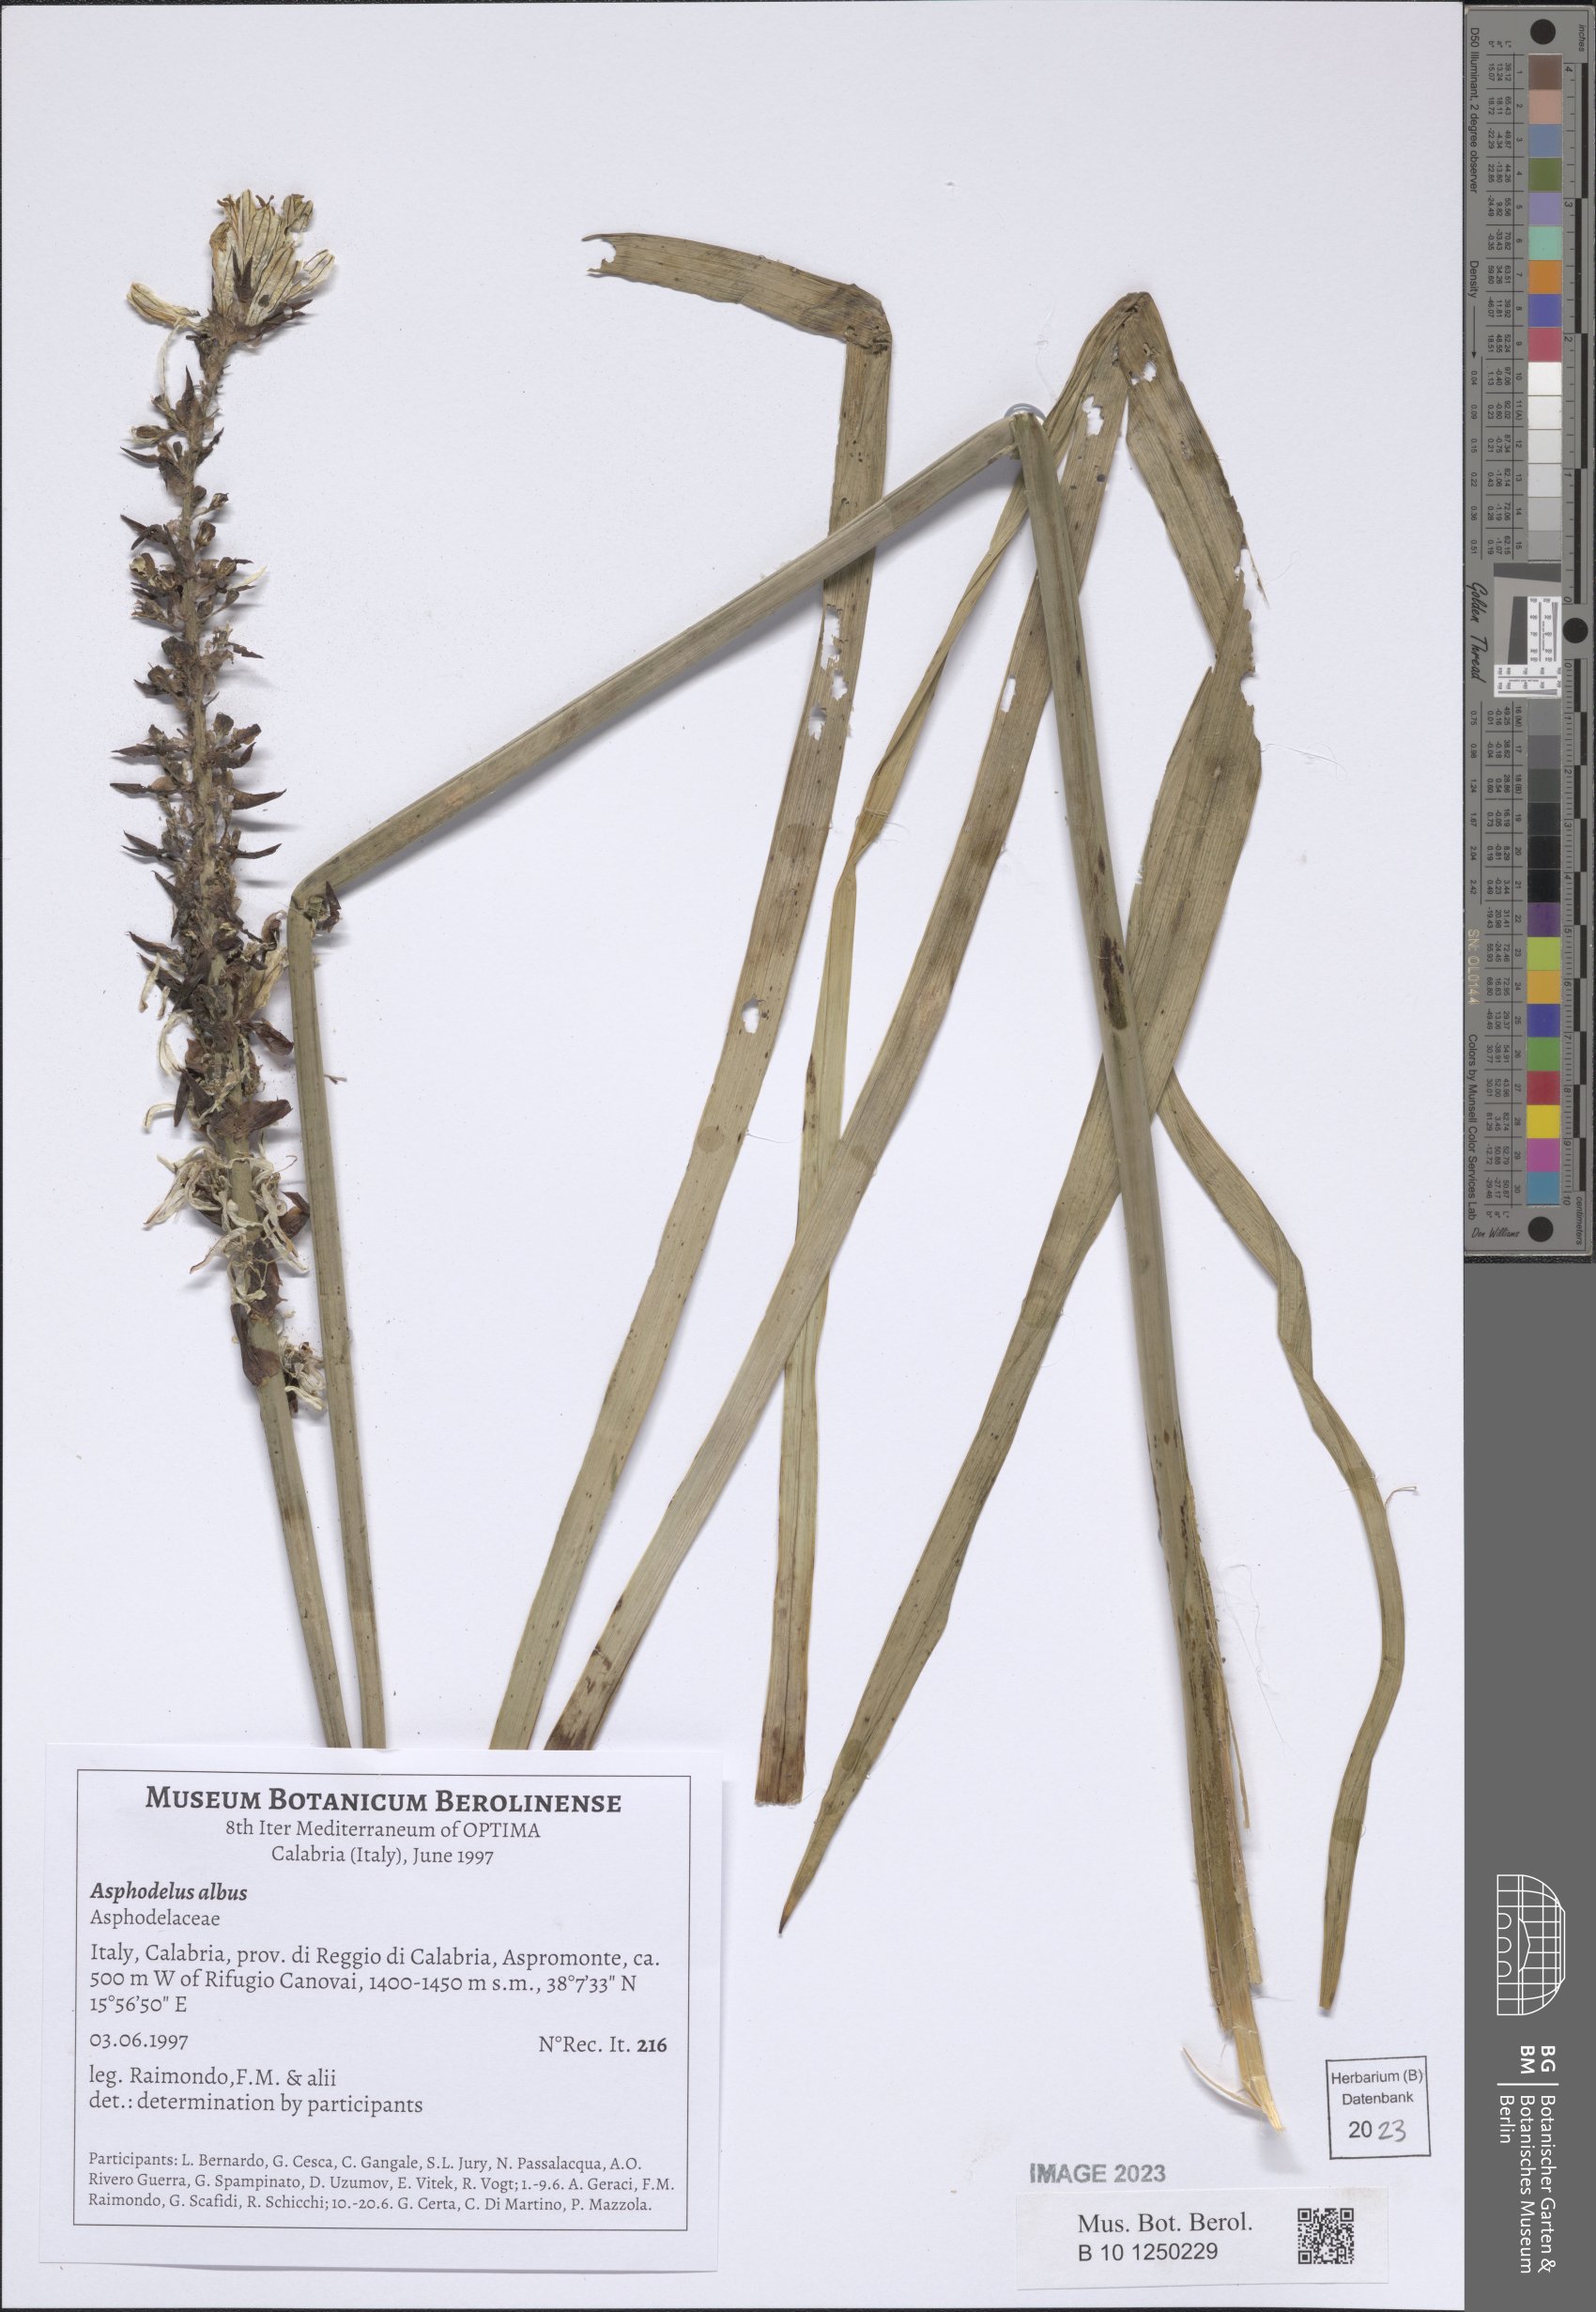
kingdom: Plantae
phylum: Tracheophyta
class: Liliopsida
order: Asparagales
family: Asphodelaceae
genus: Asphodelus
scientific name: Asphodelus albus
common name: White asphodel
